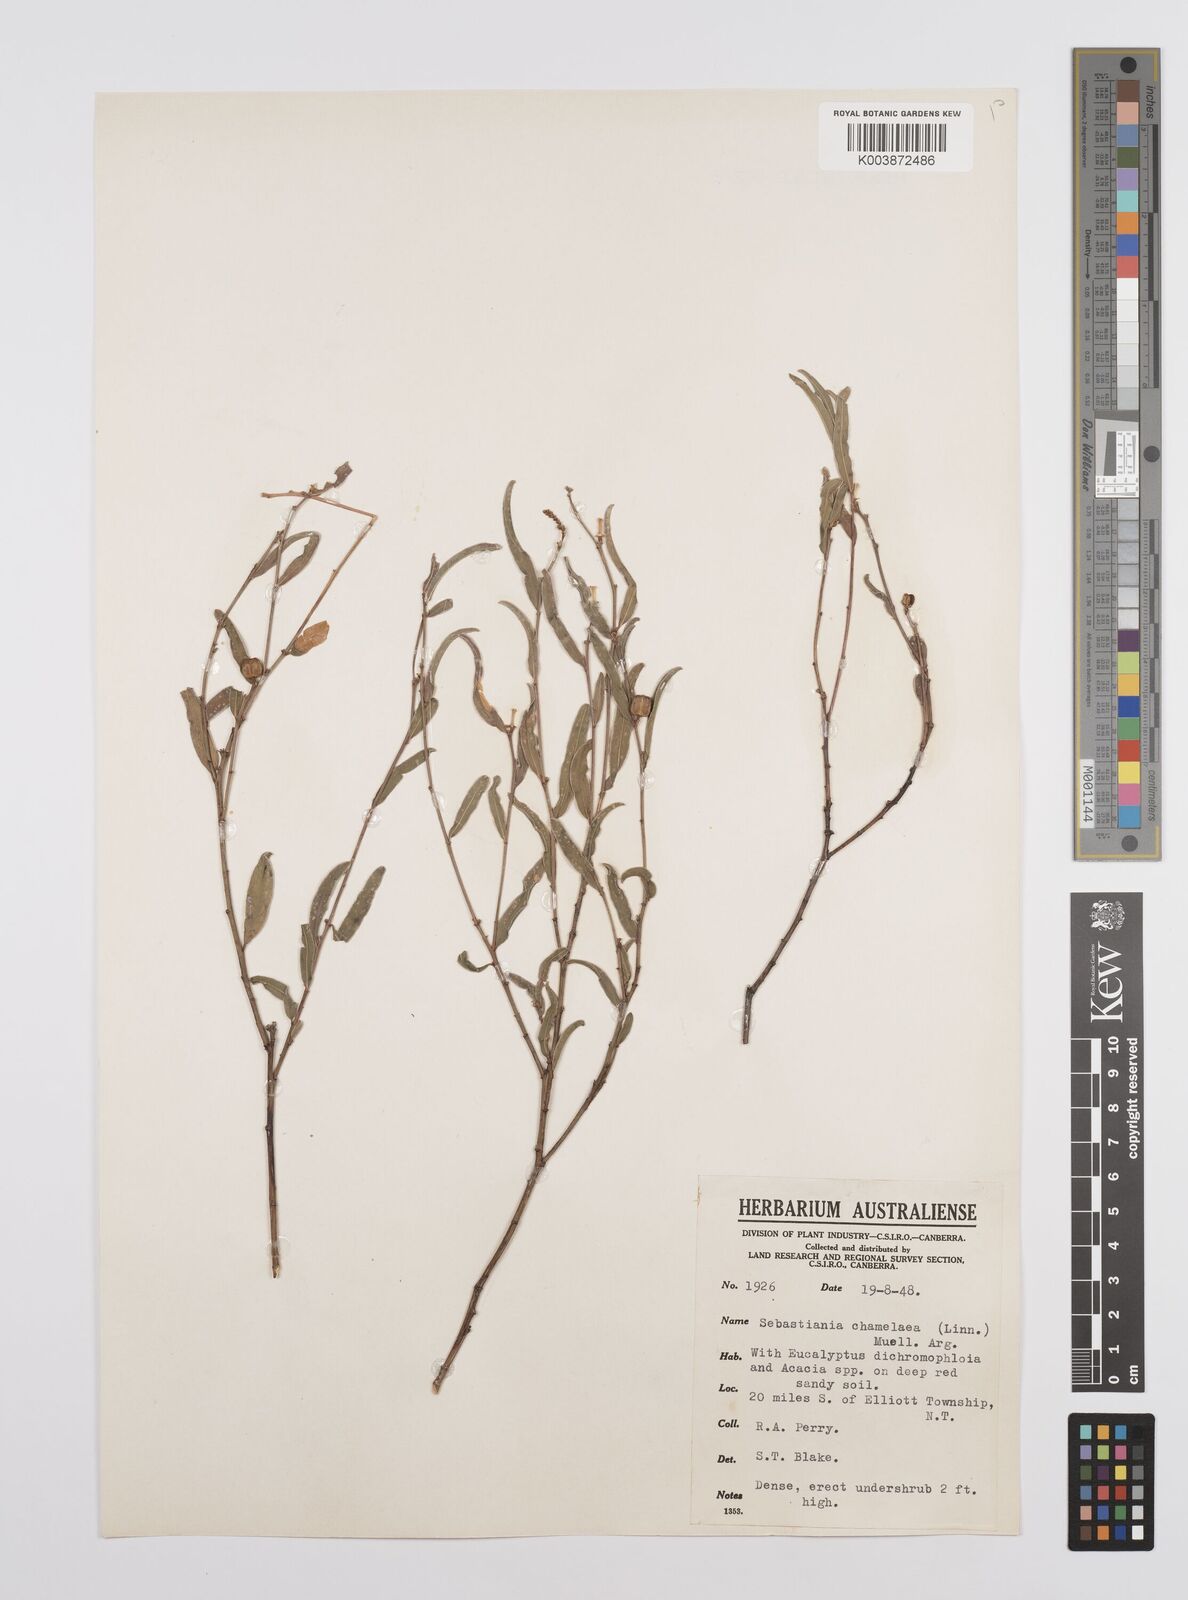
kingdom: Plantae
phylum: Tracheophyta
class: Magnoliopsida
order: Malpighiales
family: Euphorbiaceae
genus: Microstachys
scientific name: Microstachys chamaelea
